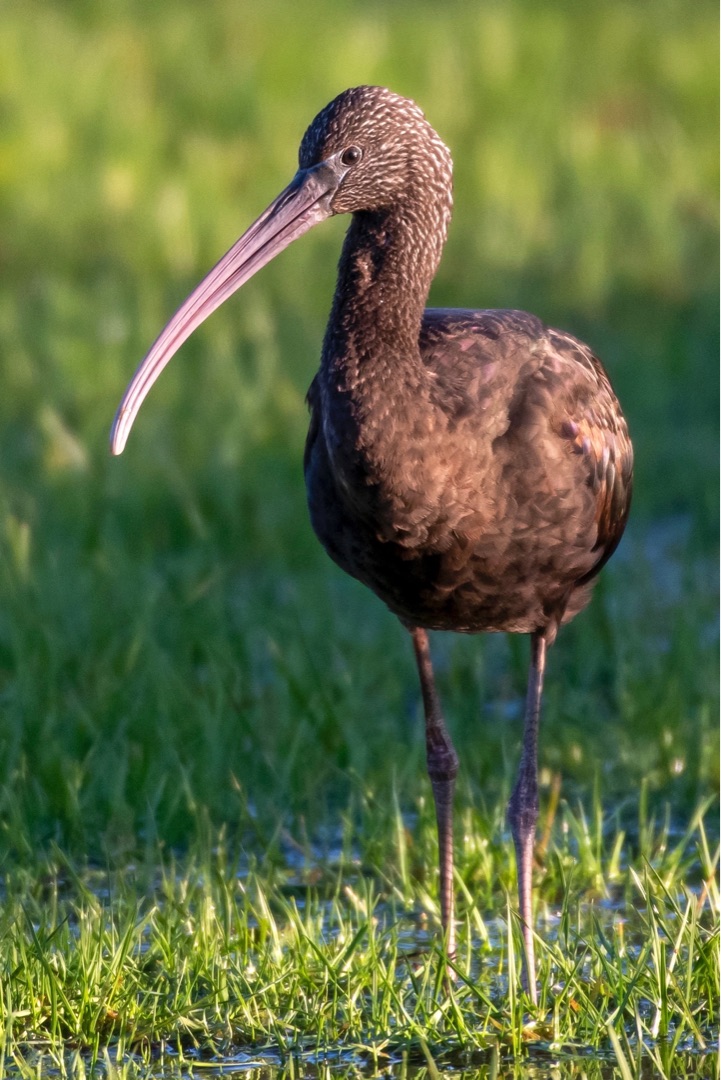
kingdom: Animalia
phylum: Chordata
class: Aves
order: Pelecaniformes
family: Threskiornithidae
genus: Plegadis
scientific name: Plegadis falcinellus
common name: Sort ibis
